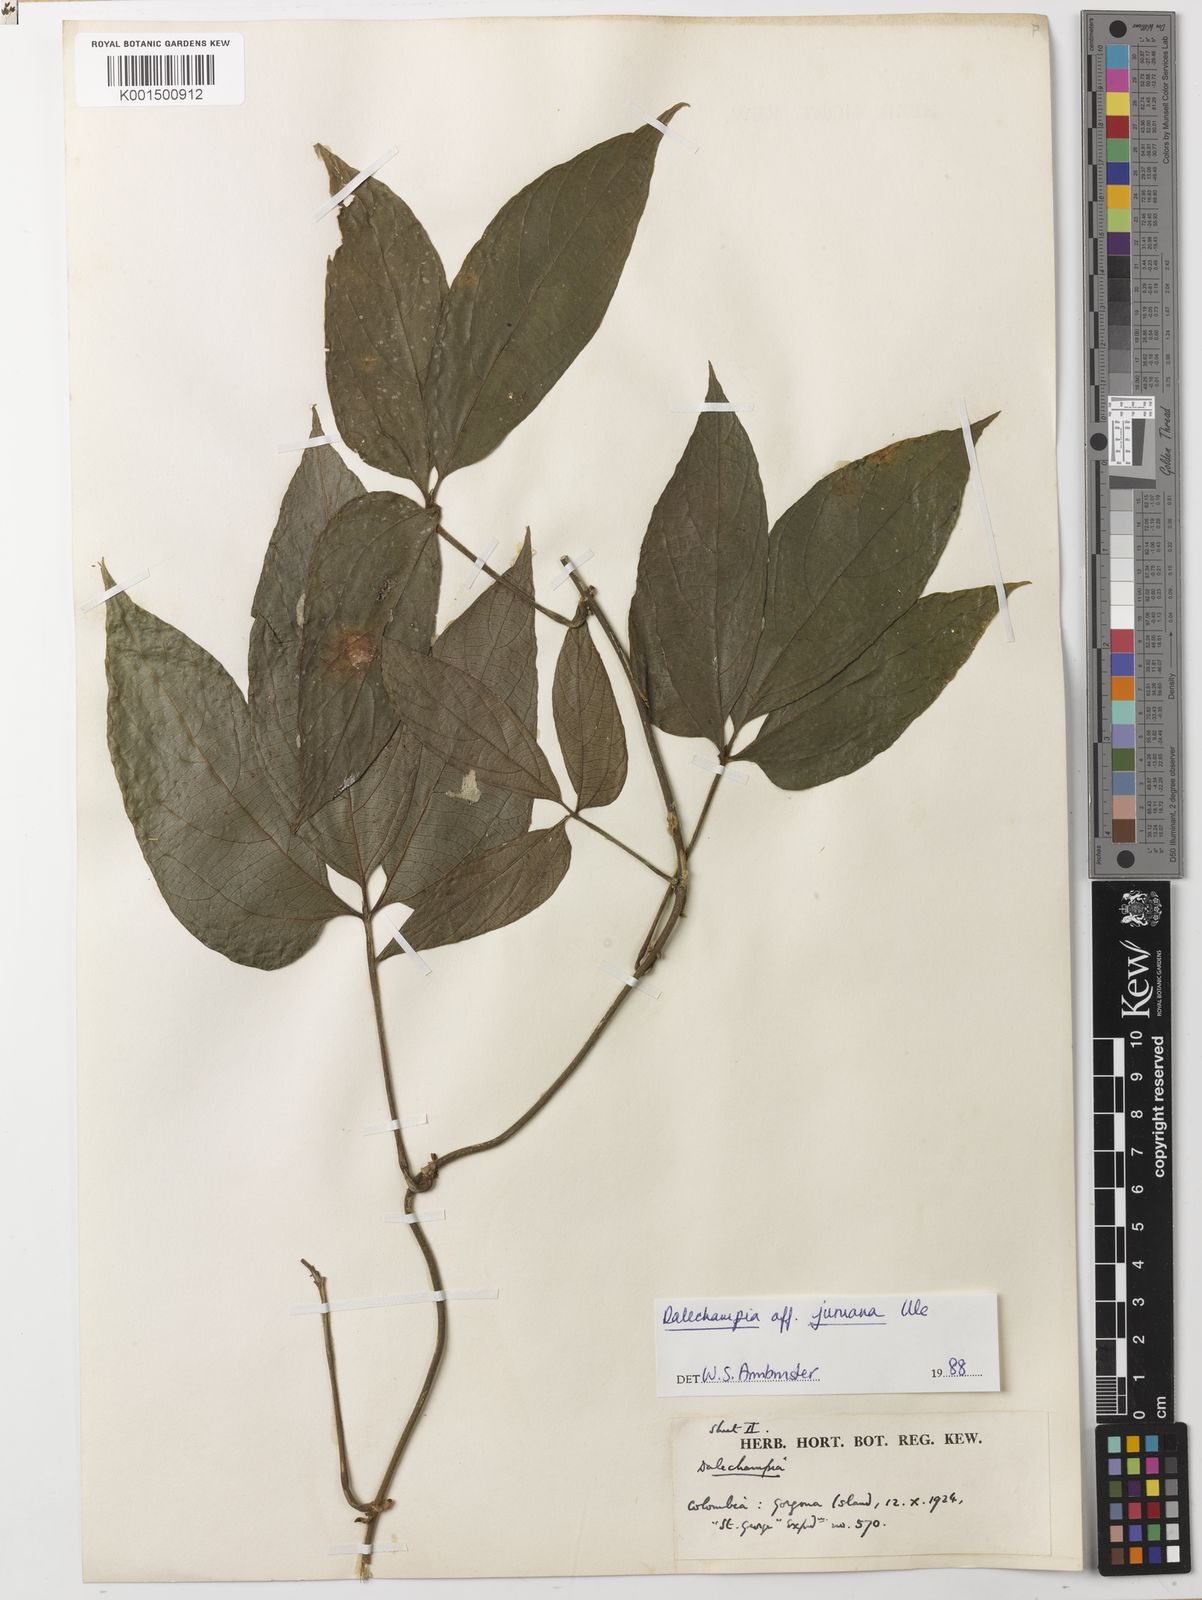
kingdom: Plantae
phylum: Tracheophyta
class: Magnoliopsida
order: Malpighiales
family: Euphorbiaceae
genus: Dalechampia
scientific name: Dalechampia juruana
